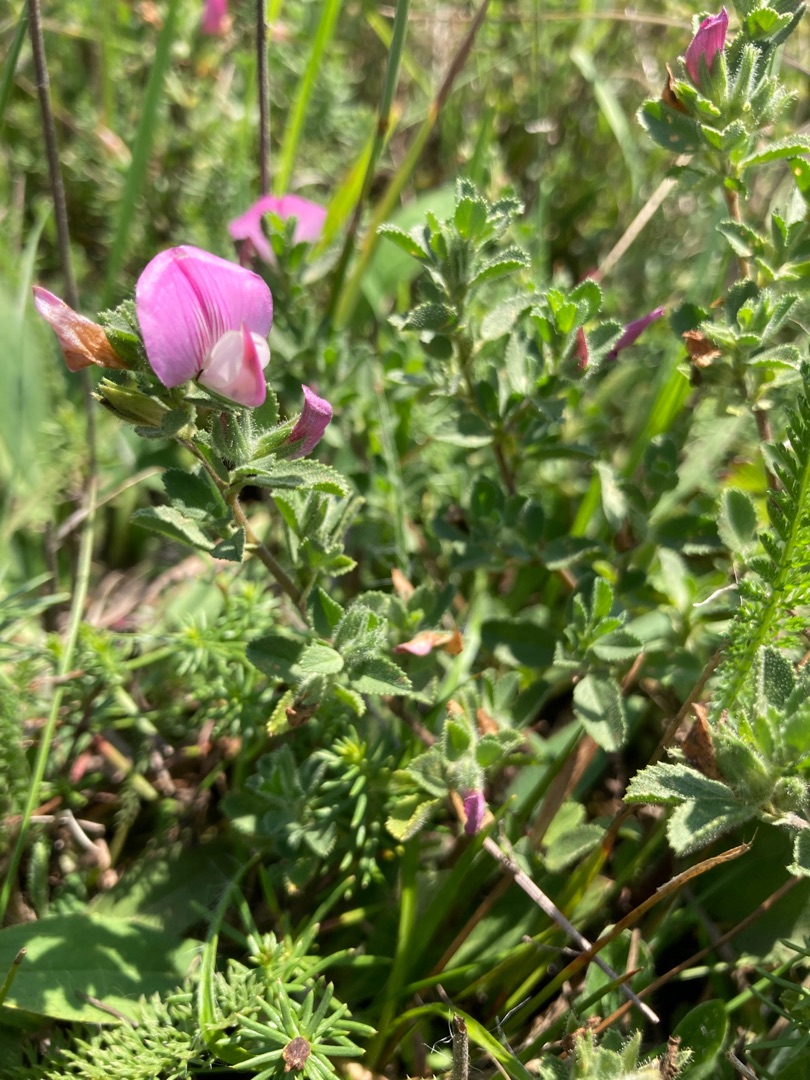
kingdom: Plantae
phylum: Tracheophyta
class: Magnoliopsida
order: Fabales
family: Fabaceae
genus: Ononis
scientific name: Ononis spinosa
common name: Mark-krageklo
